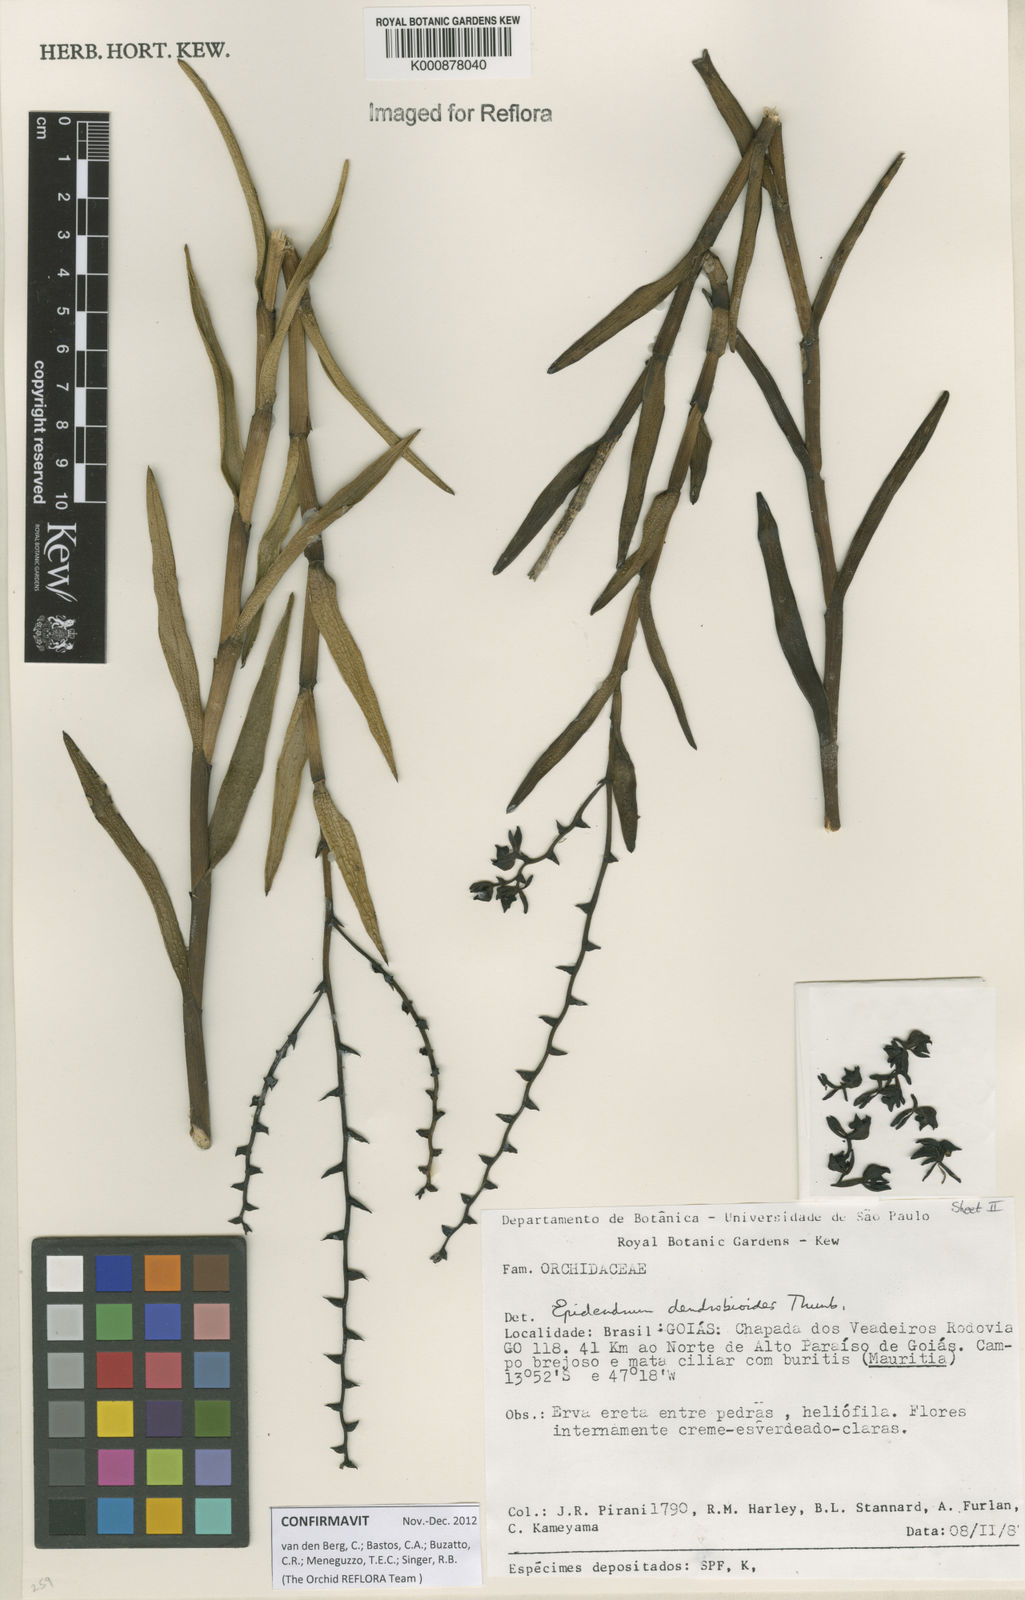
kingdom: Plantae
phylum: Tracheophyta
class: Liliopsida
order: Asparagales
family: Orchidaceae
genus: Epidendrum
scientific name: Epidendrum dendrobioides
